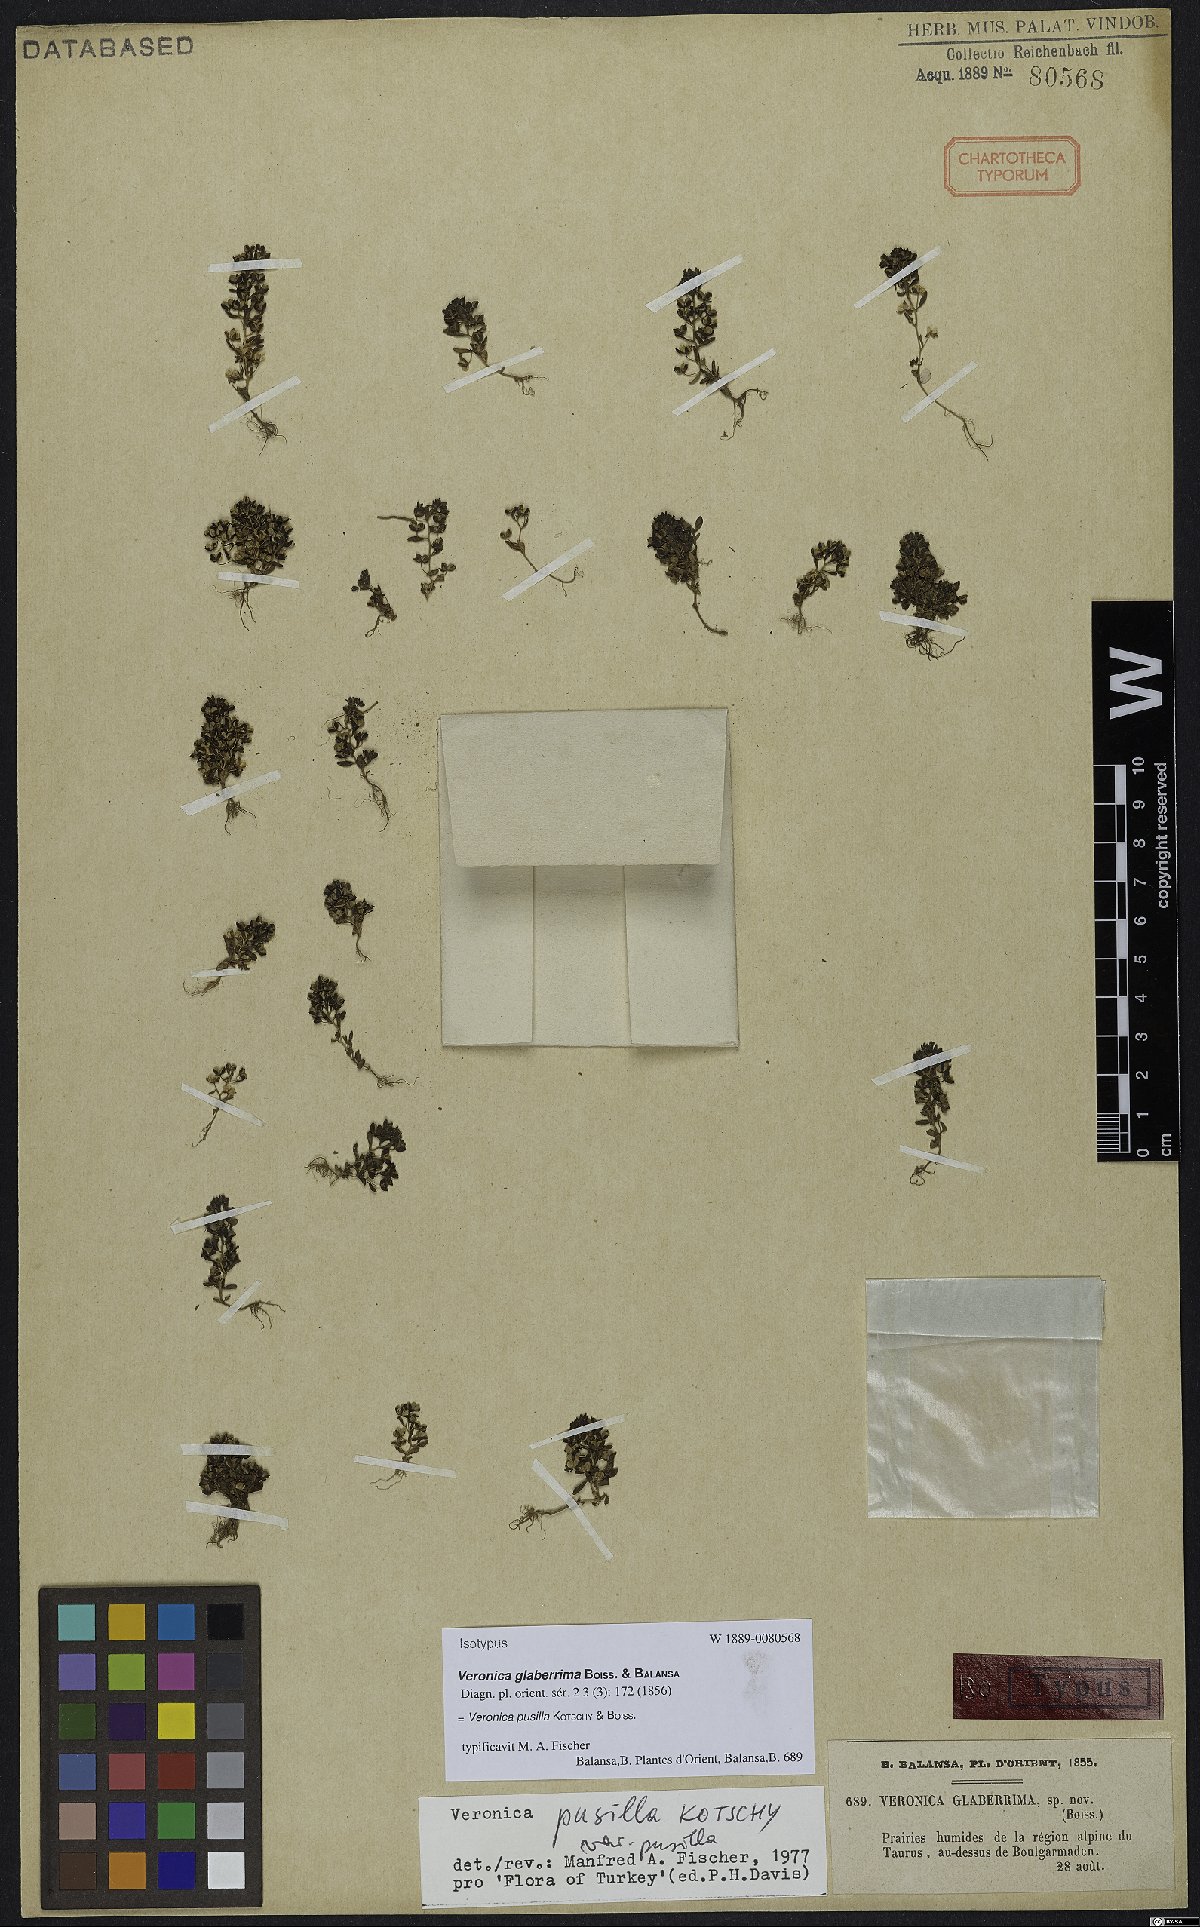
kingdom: Plantae
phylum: Tracheophyta
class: Magnoliopsida
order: Lamiales
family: Plantaginaceae
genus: Veronica
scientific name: Veronica pusilla
